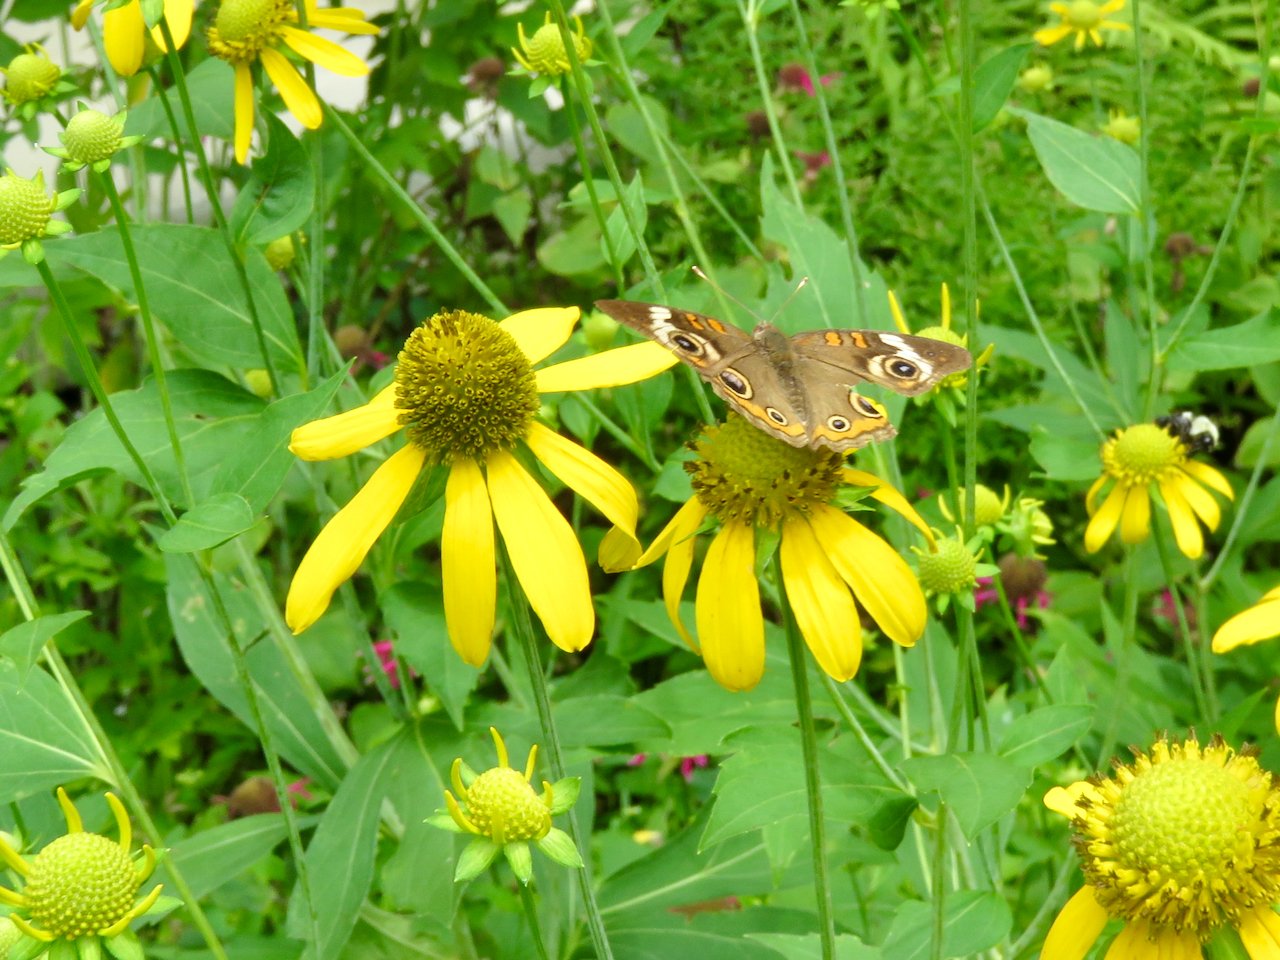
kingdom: Animalia
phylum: Arthropoda
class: Insecta
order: Lepidoptera
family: Nymphalidae
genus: Junonia
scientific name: Junonia coenia
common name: Common Buckeye
